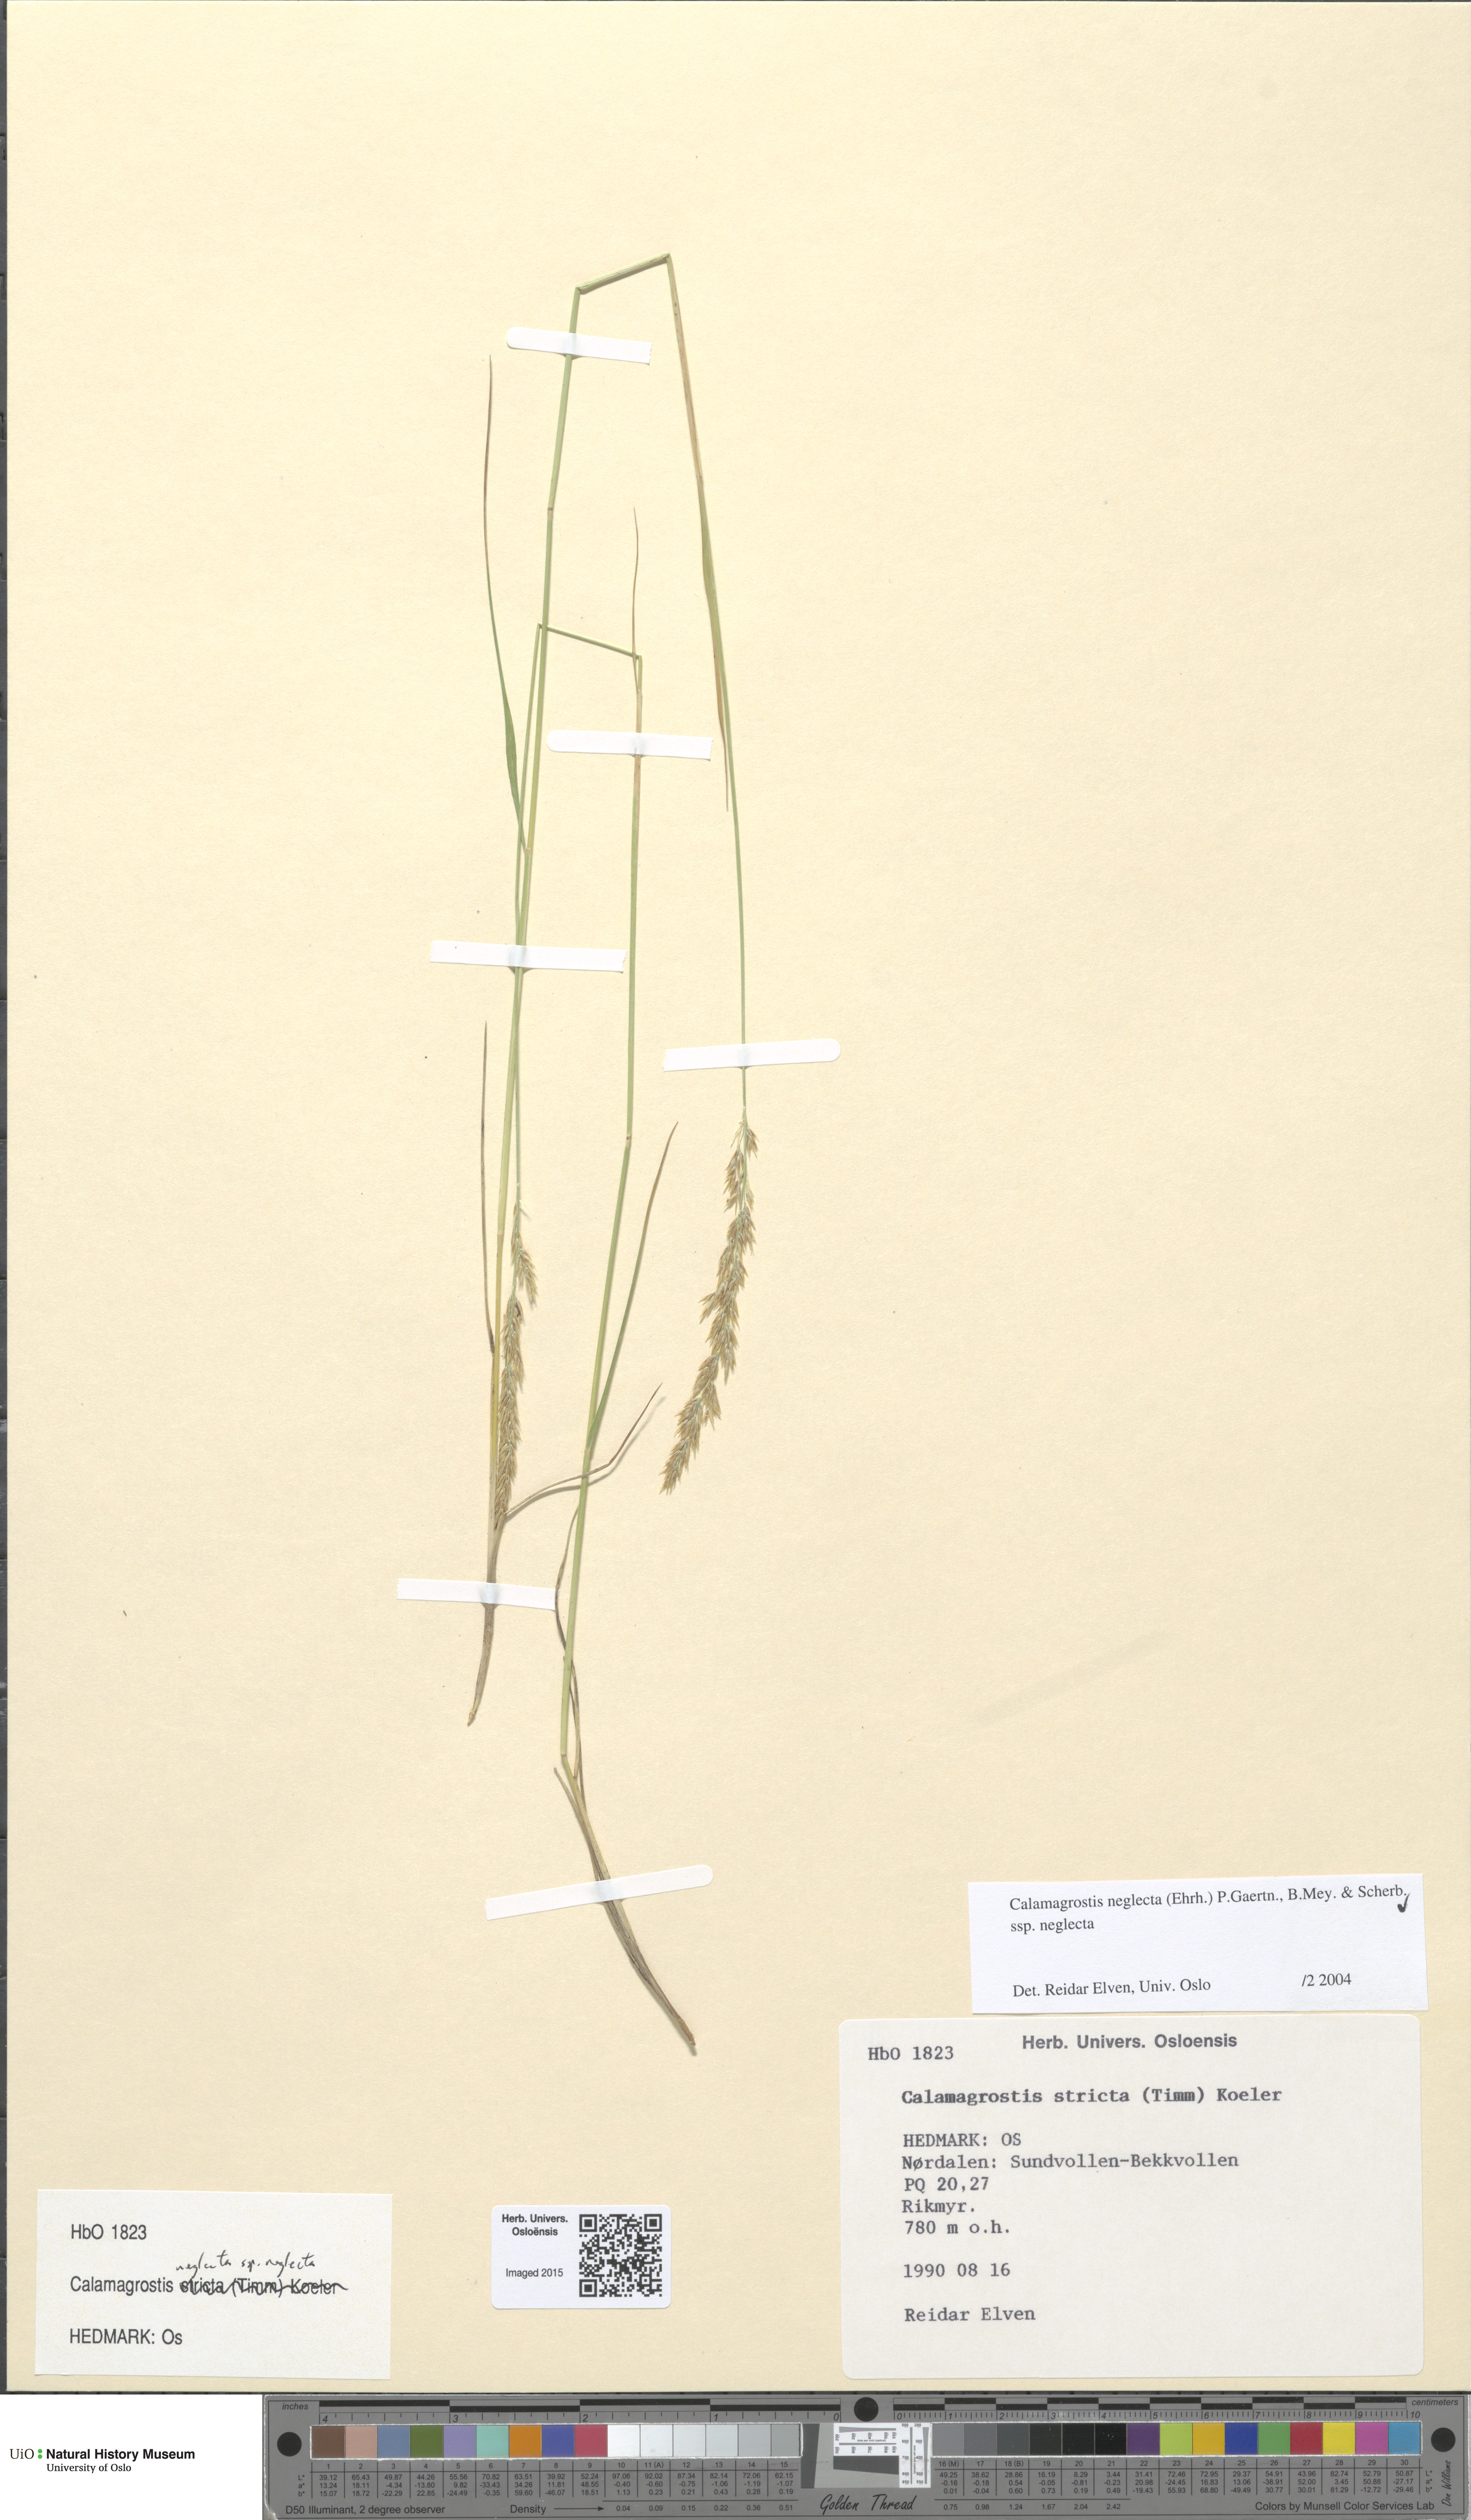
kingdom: Plantae
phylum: Tracheophyta
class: Liliopsida
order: Poales
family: Poaceae
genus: Achnatherum
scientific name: Achnatherum calamagrostis
